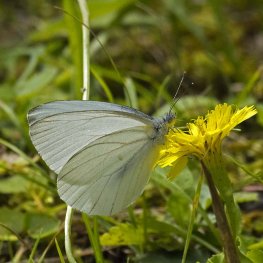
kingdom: Animalia
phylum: Arthropoda
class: Insecta
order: Lepidoptera
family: Pieridae
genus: Pieris
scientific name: Pieris oleracea
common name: Mustard White
